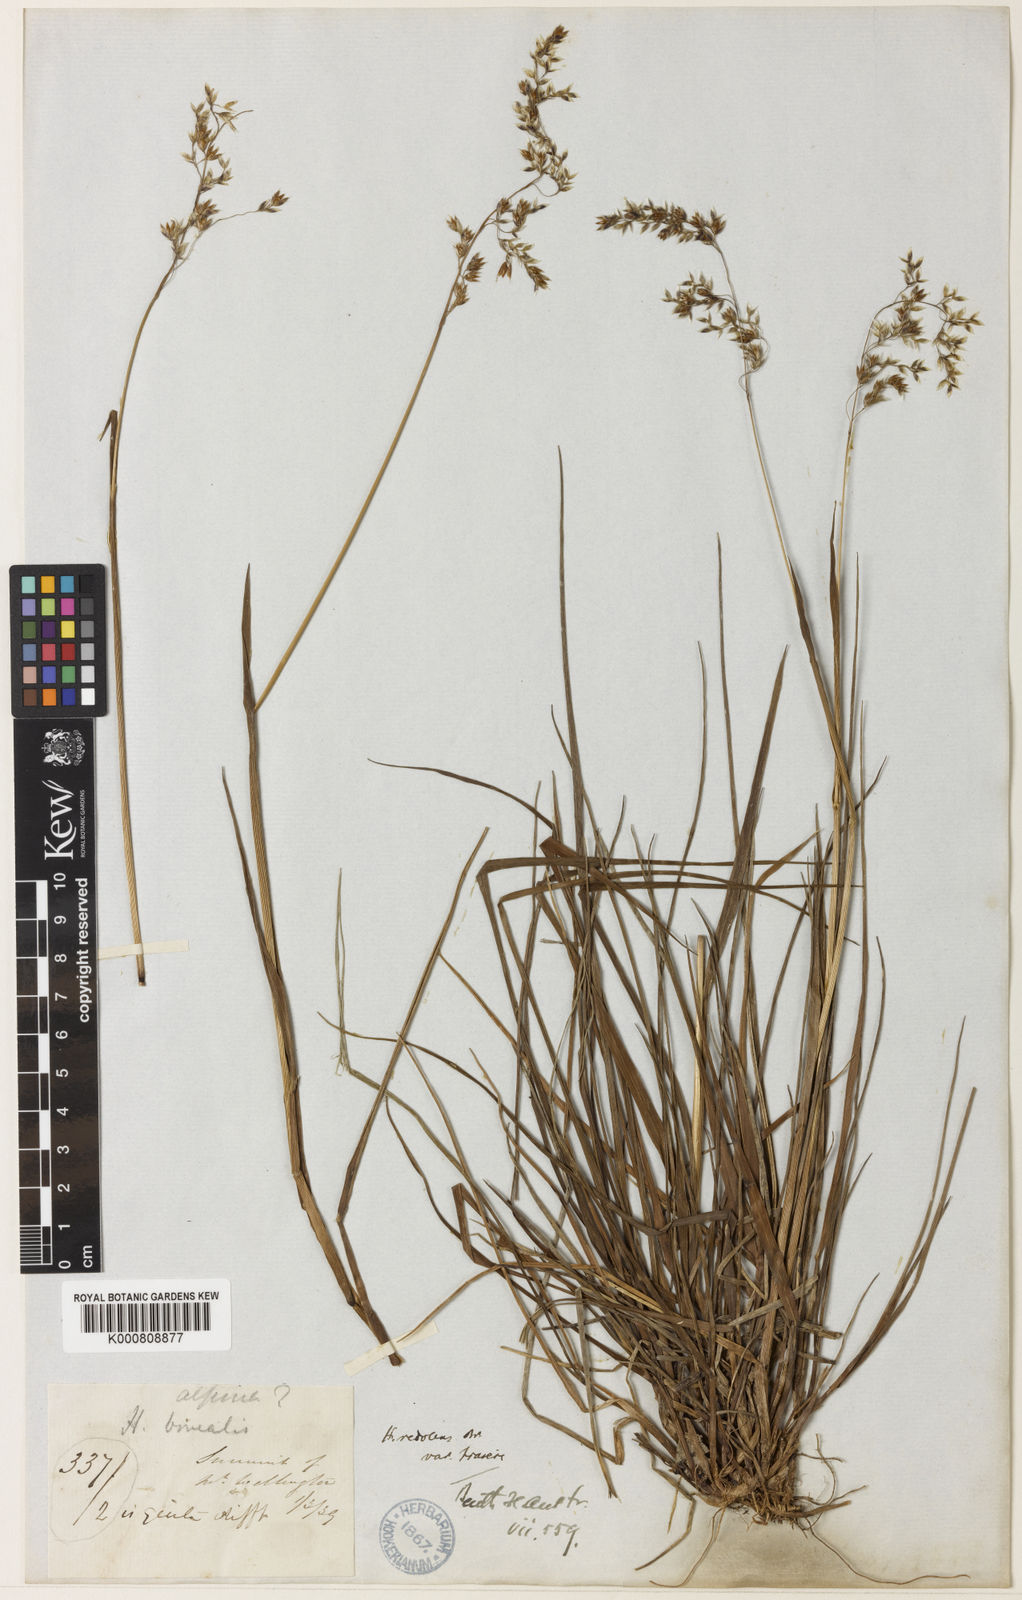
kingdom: Plantae
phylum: Tracheophyta
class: Liliopsida
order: Poales
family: Poaceae
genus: Hierochloe
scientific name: Hierochloe
